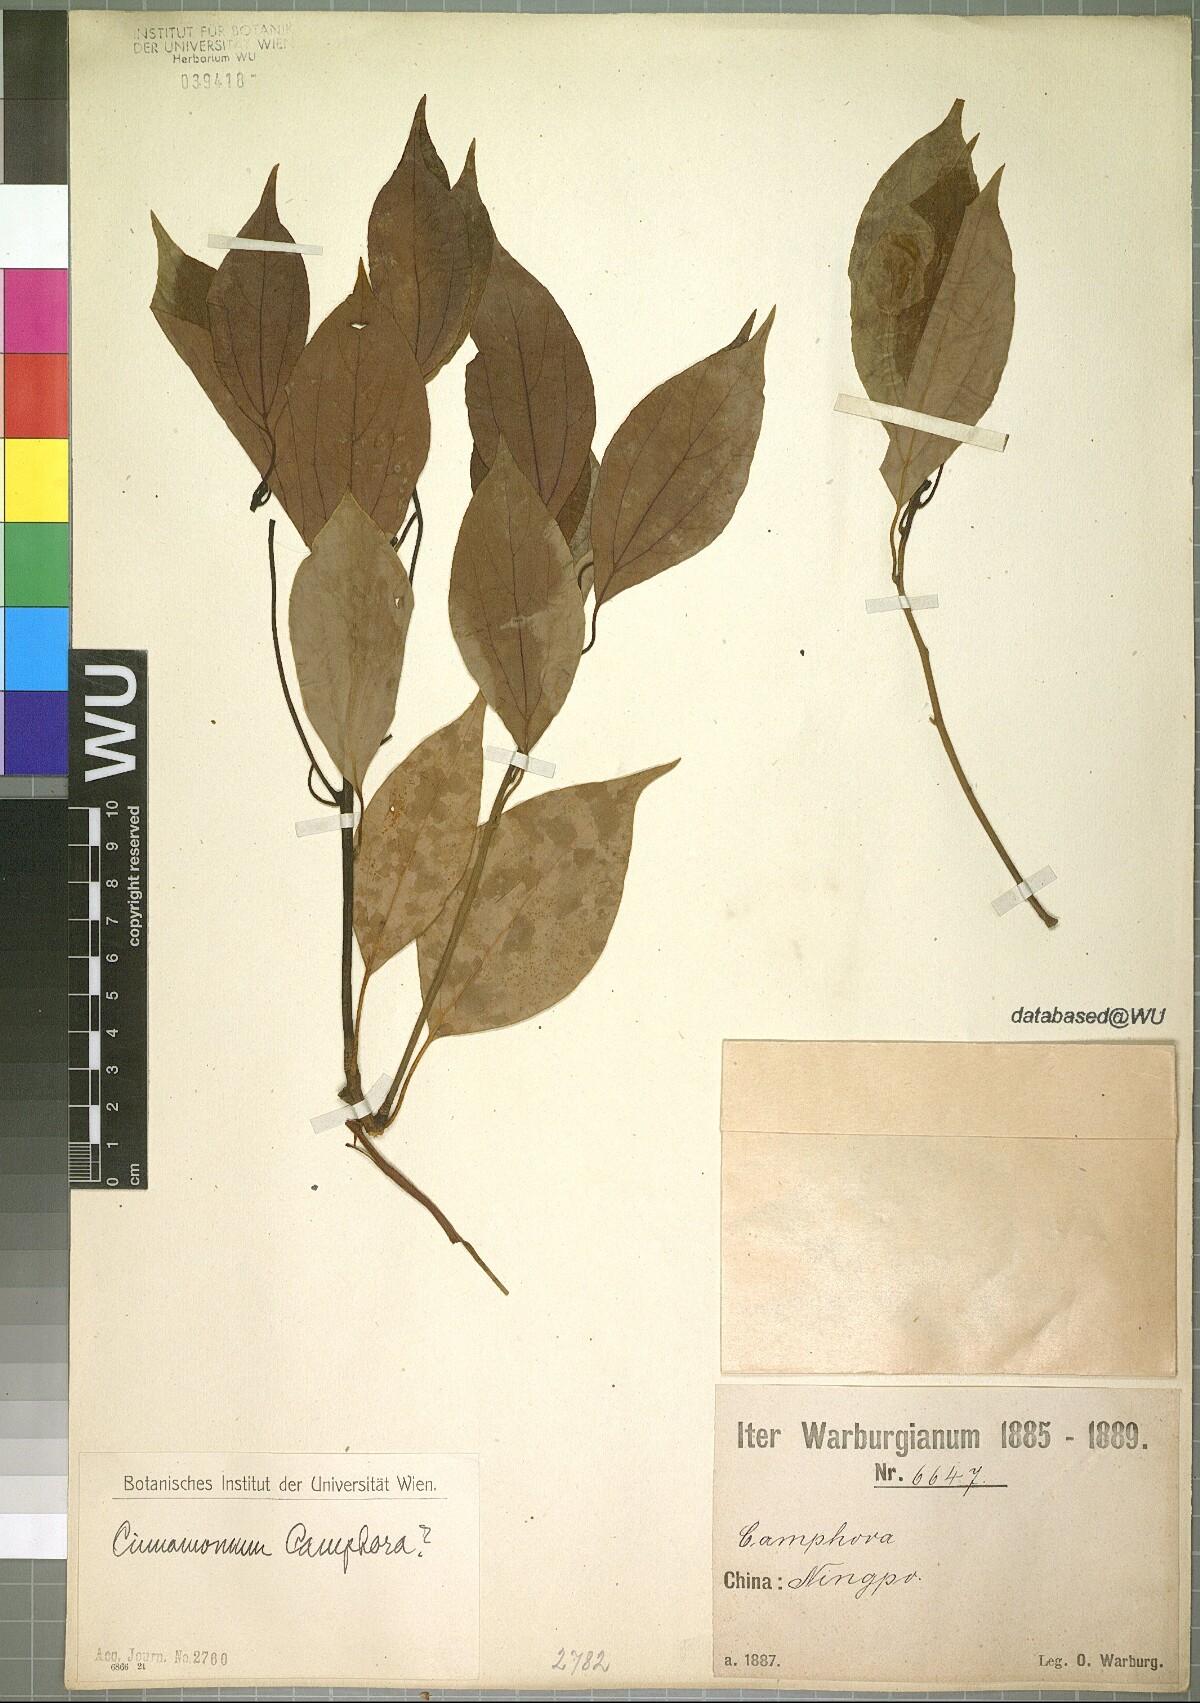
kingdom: Plantae
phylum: Tracheophyta
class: Magnoliopsida
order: Laurales
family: Lauraceae
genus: Cinnamomum
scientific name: Cinnamomum camphora
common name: Camphortree
